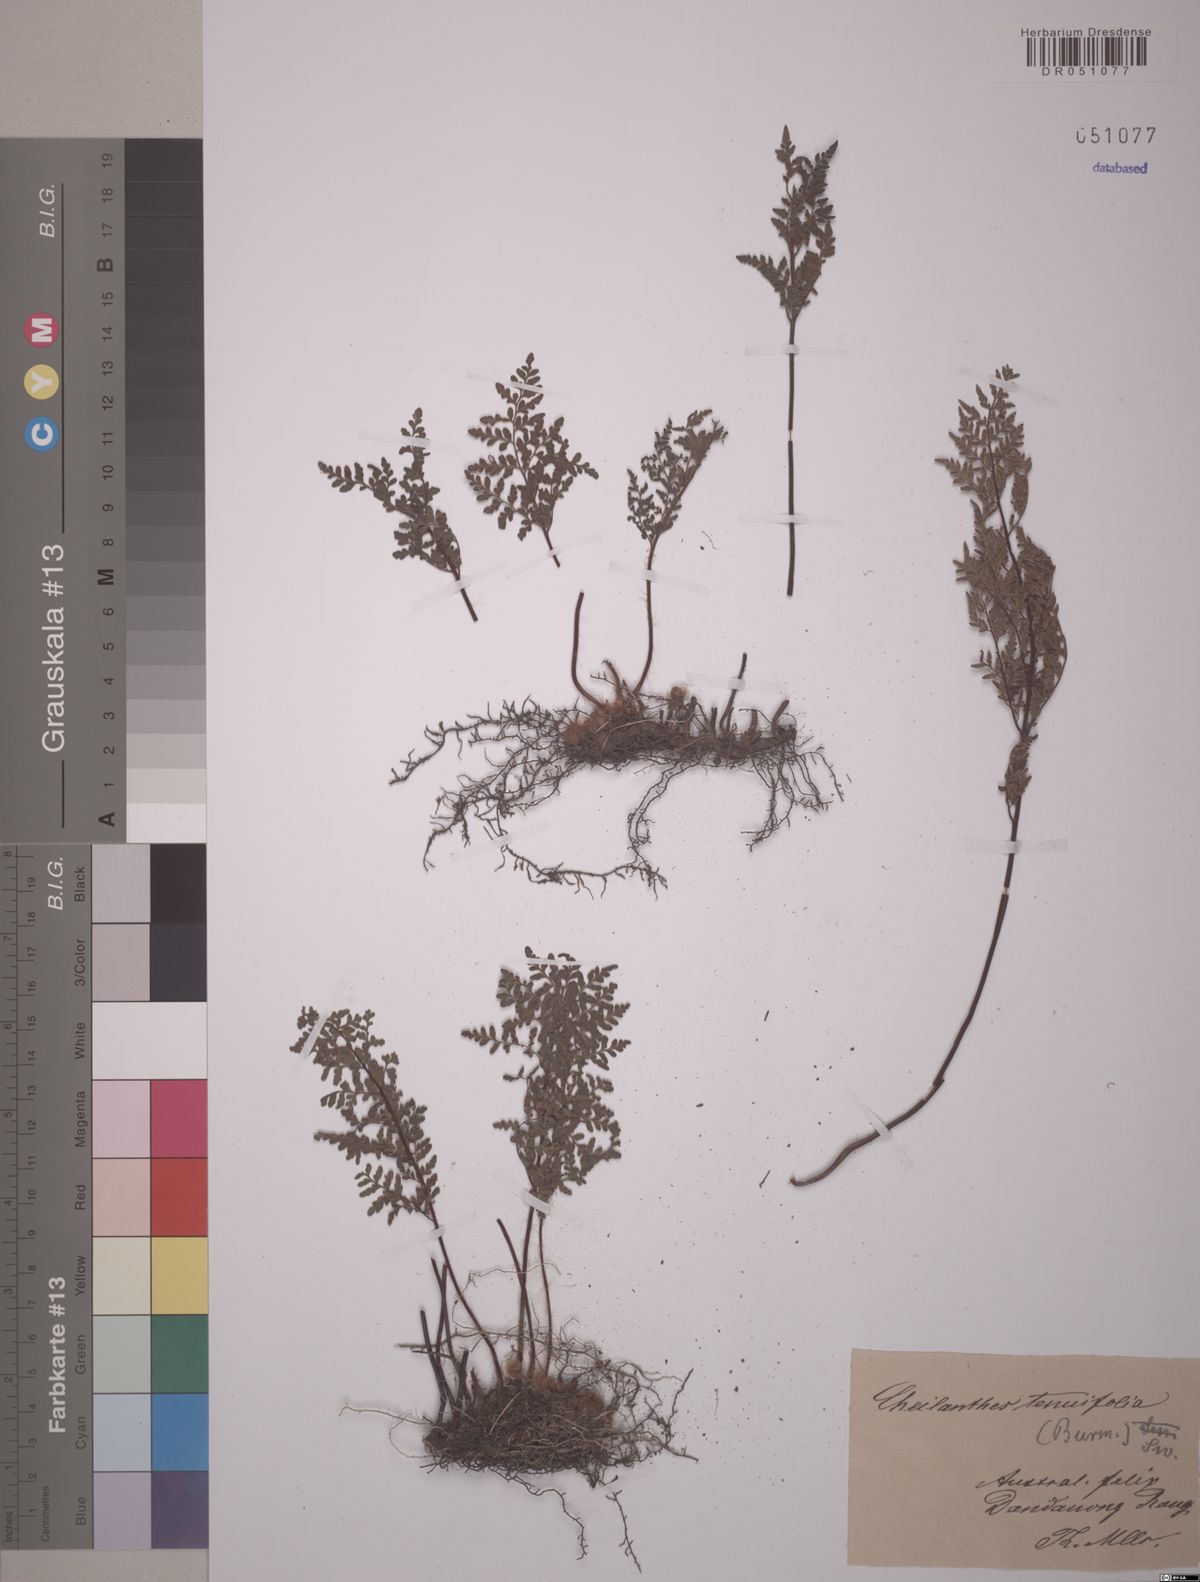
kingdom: Plantae
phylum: Tracheophyta
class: Polypodiopsida
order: Polypodiales
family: Pteridaceae
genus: Cheilanthes
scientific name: Cheilanthes tenuifolia
